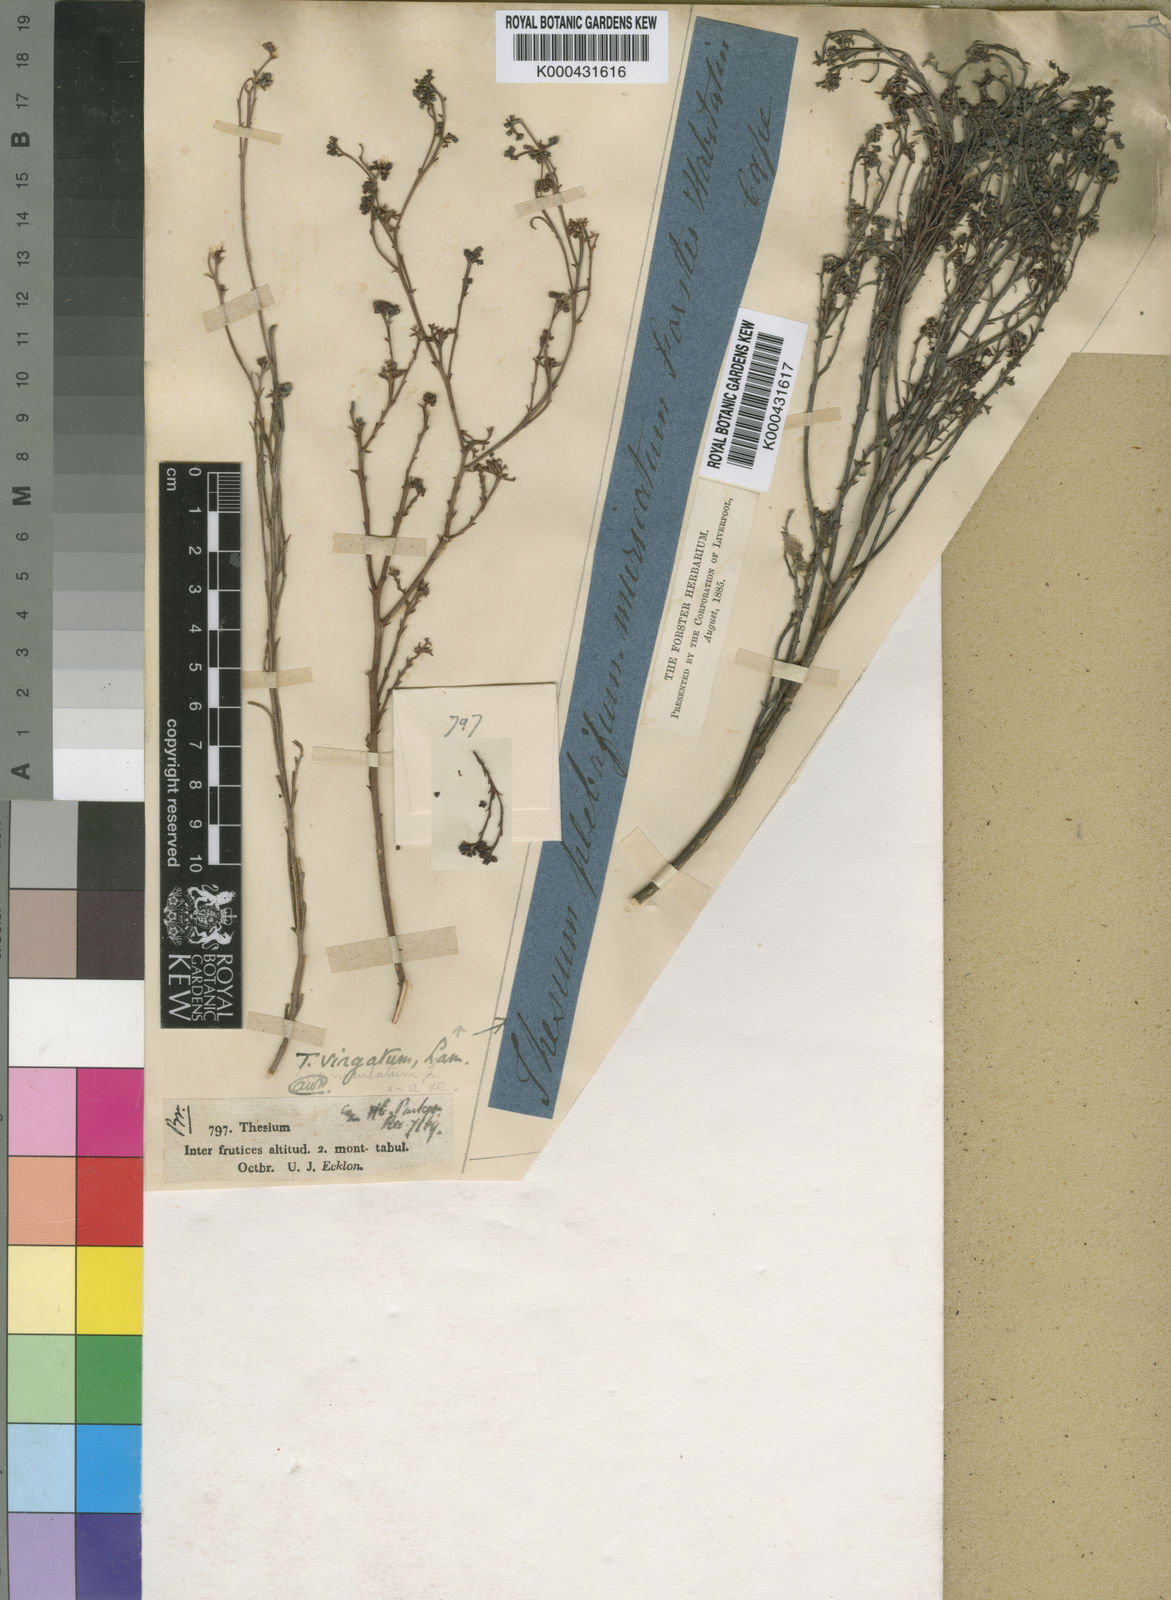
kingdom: Plantae
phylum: Tracheophyta
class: Magnoliopsida
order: Santalales
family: Thesiaceae
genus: Thesium
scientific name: Thesium virgatum
